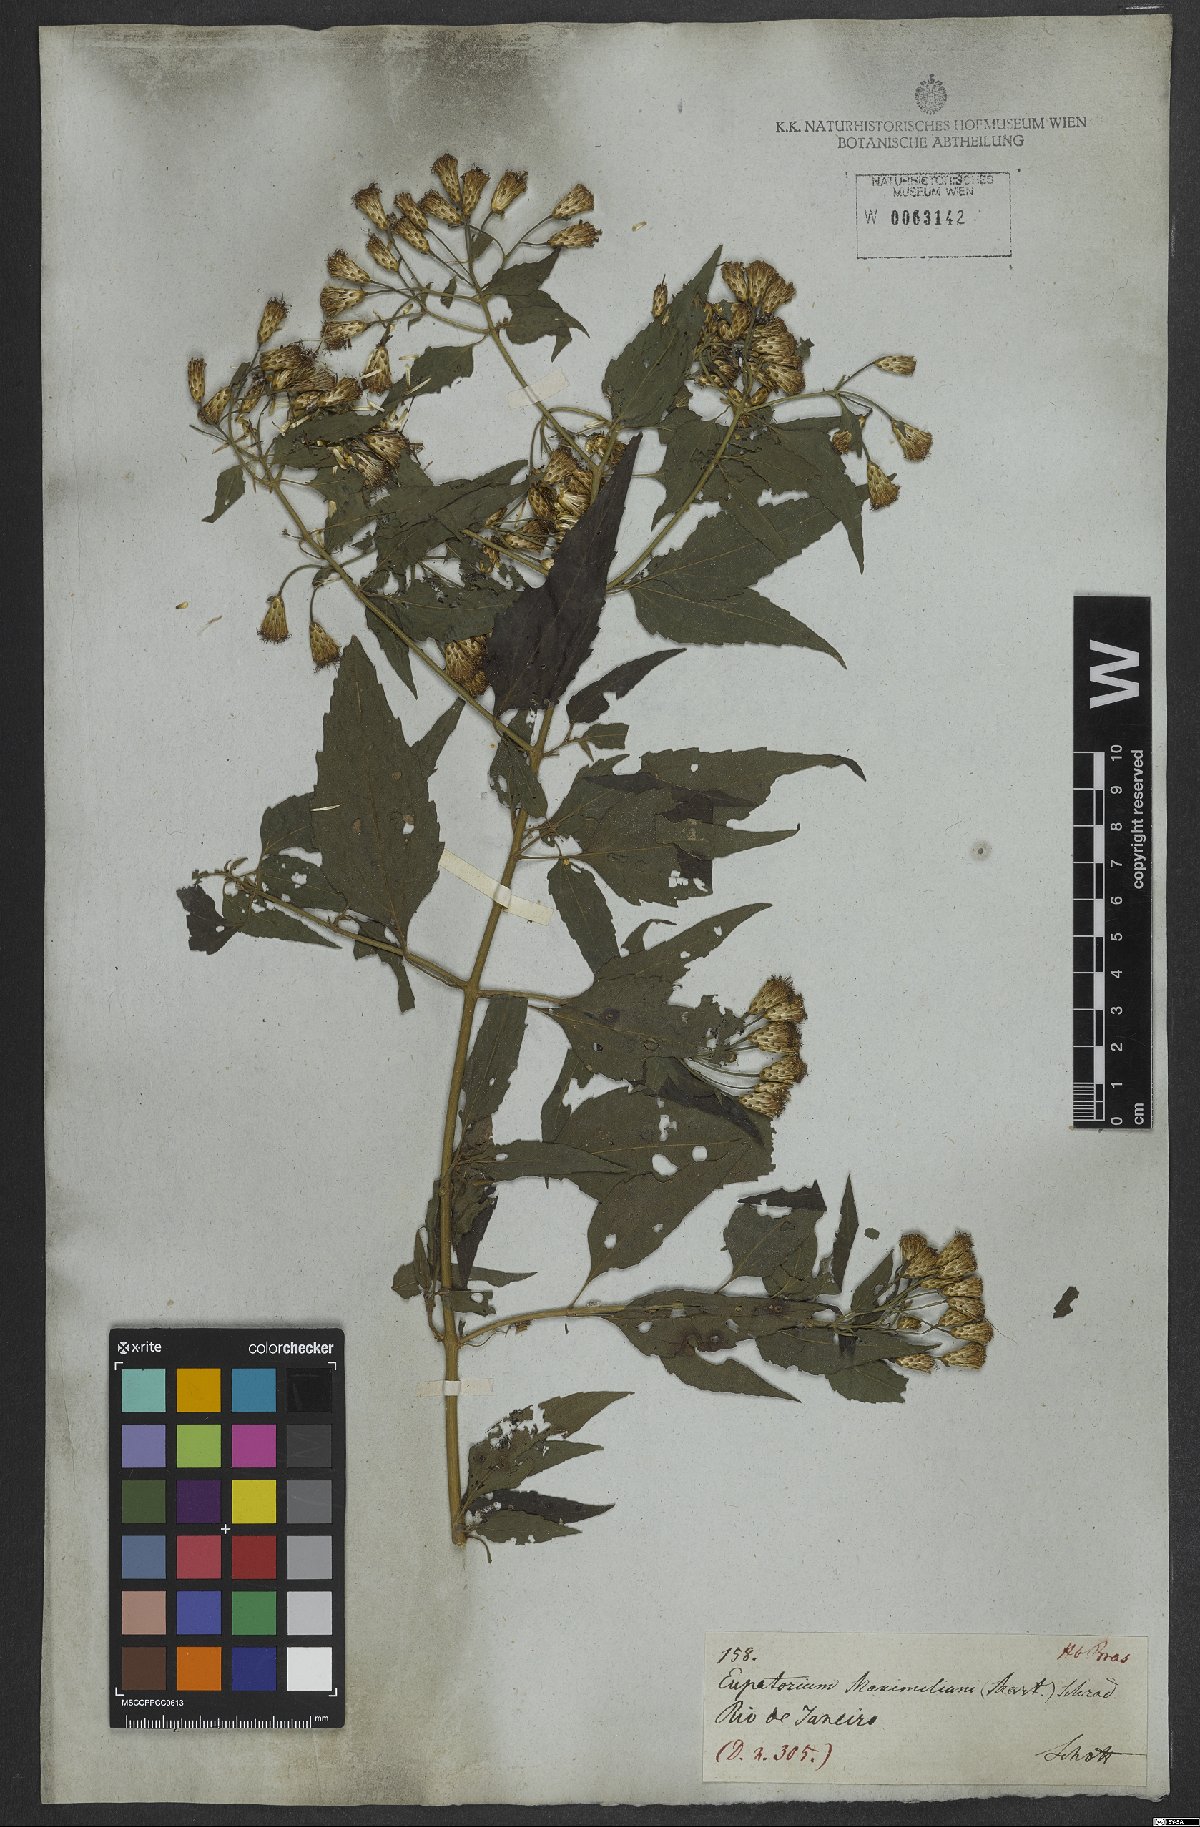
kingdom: Plantae
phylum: Tracheophyta
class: Magnoliopsida
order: Asterales
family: Asteraceae
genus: Chromolaena
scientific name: Chromolaena odorata
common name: Siamweed
